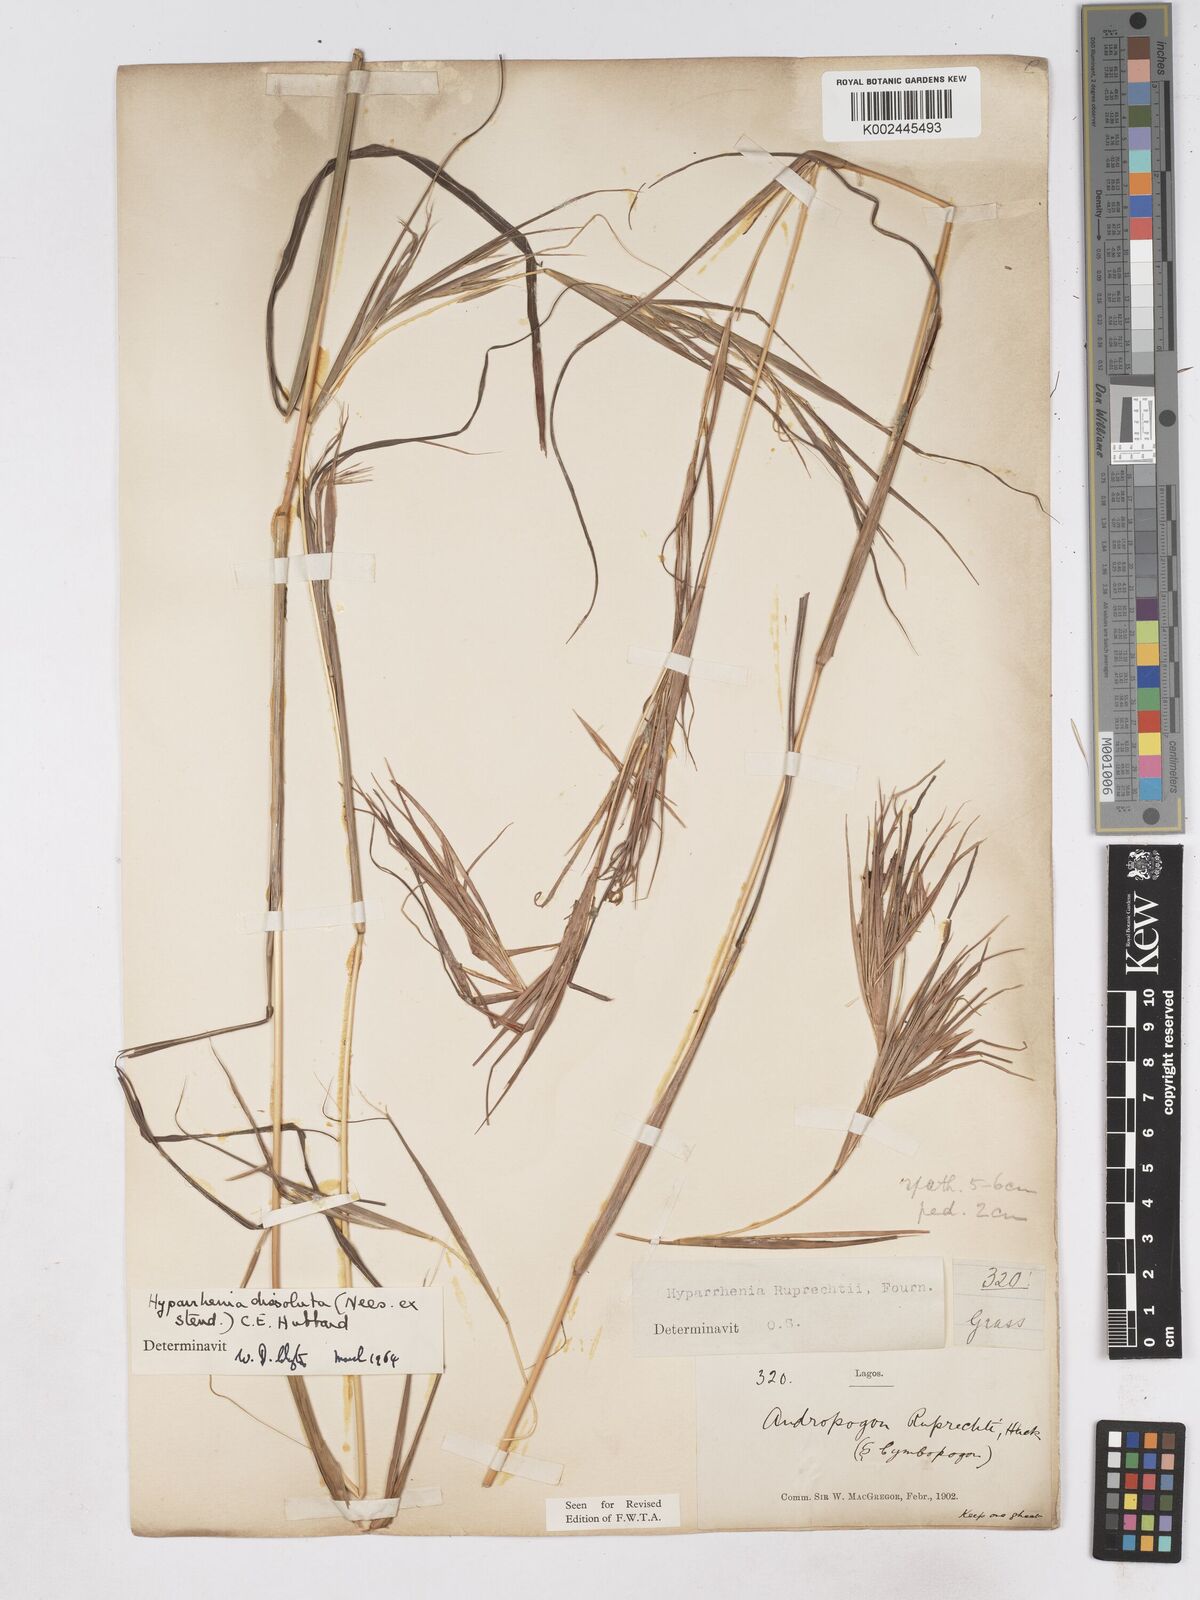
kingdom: Plantae
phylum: Tracheophyta
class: Liliopsida
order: Poales
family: Poaceae
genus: Hyperthelia
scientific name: Hyperthelia dissoluta
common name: Yellow thatching grass
